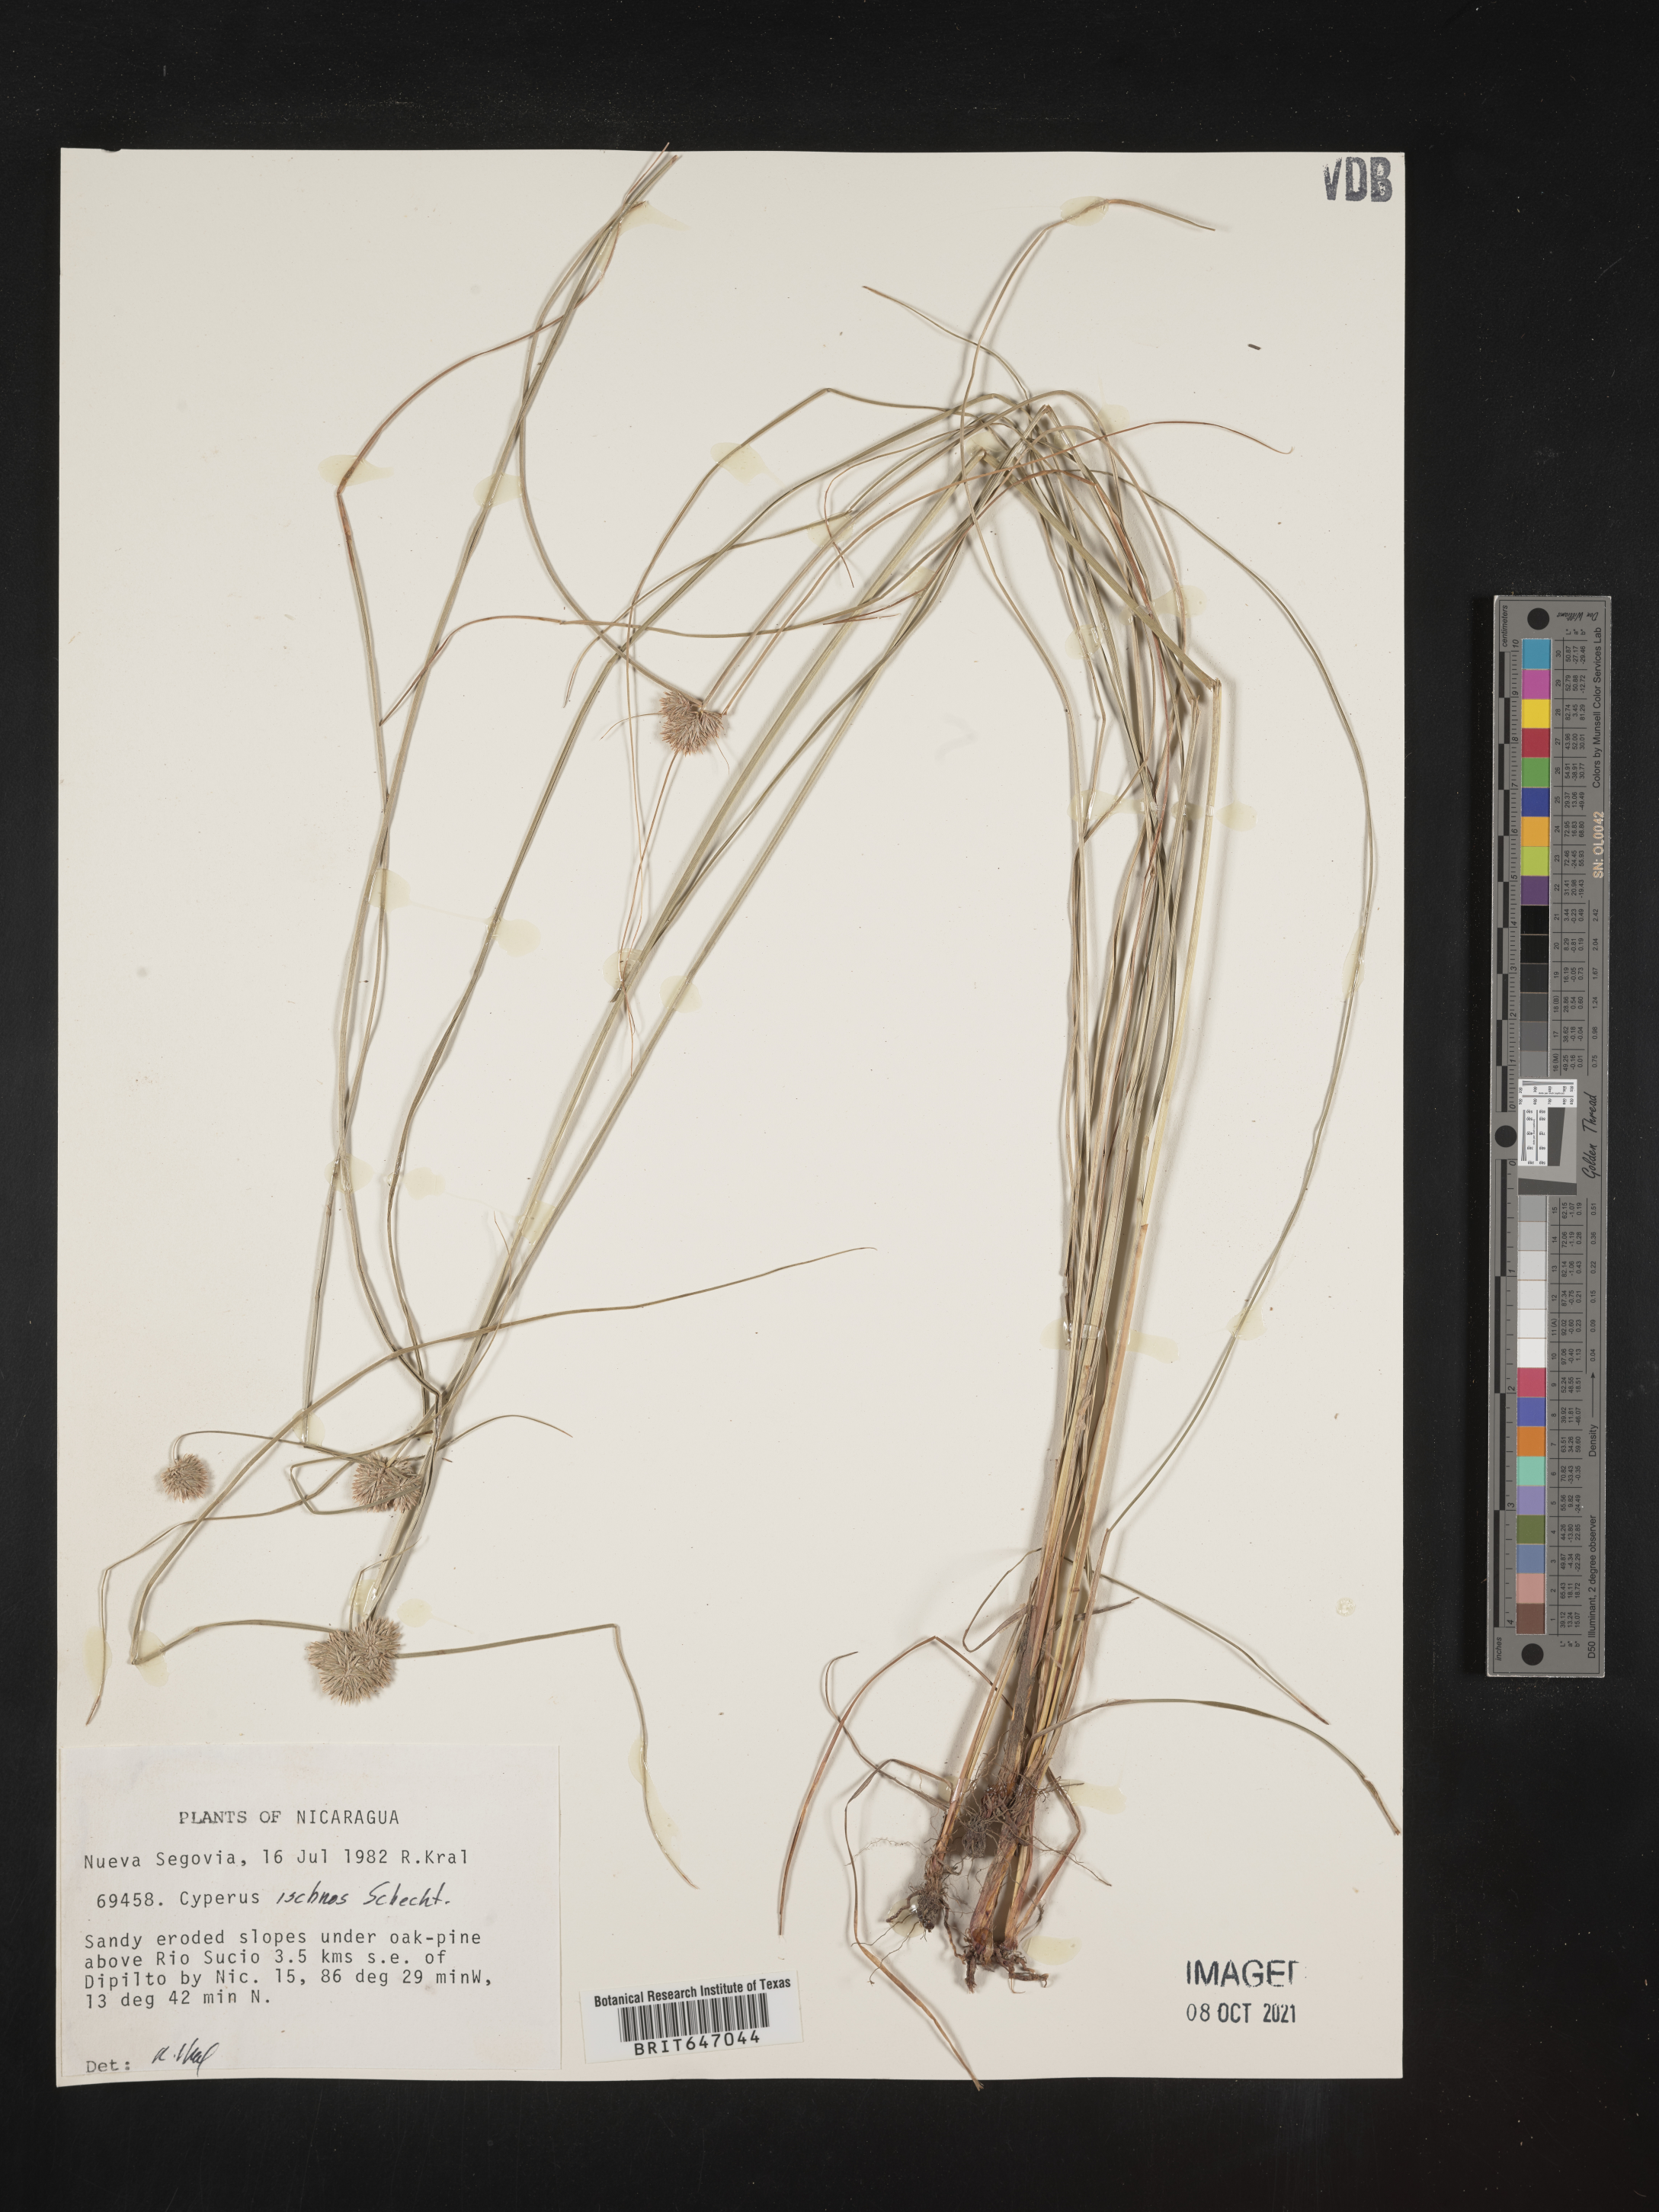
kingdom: Plantae
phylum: Tracheophyta
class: Liliopsida
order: Poales
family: Cyperaceae
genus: Cyperus
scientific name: Cyperus ischnos
